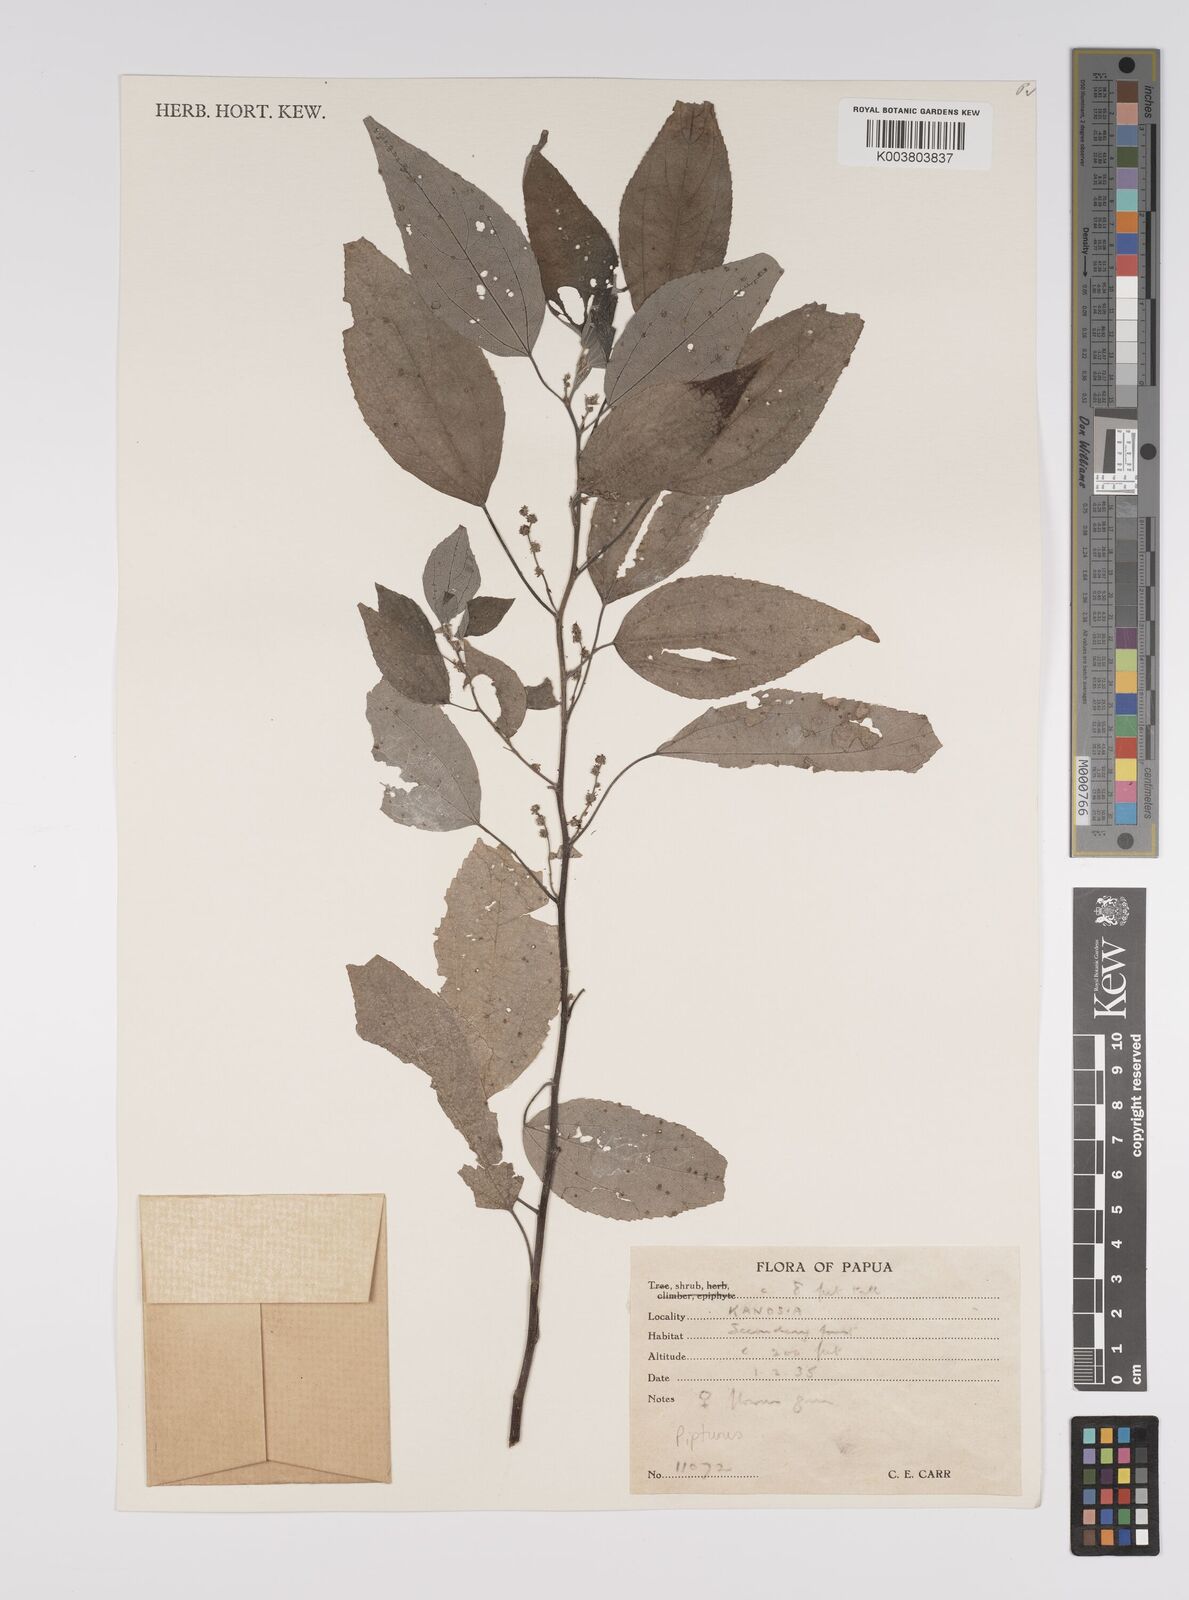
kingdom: Plantae
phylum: Tracheophyta
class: Magnoliopsida
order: Rosales
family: Urticaceae
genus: Pipturus
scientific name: Pipturus argenteus
